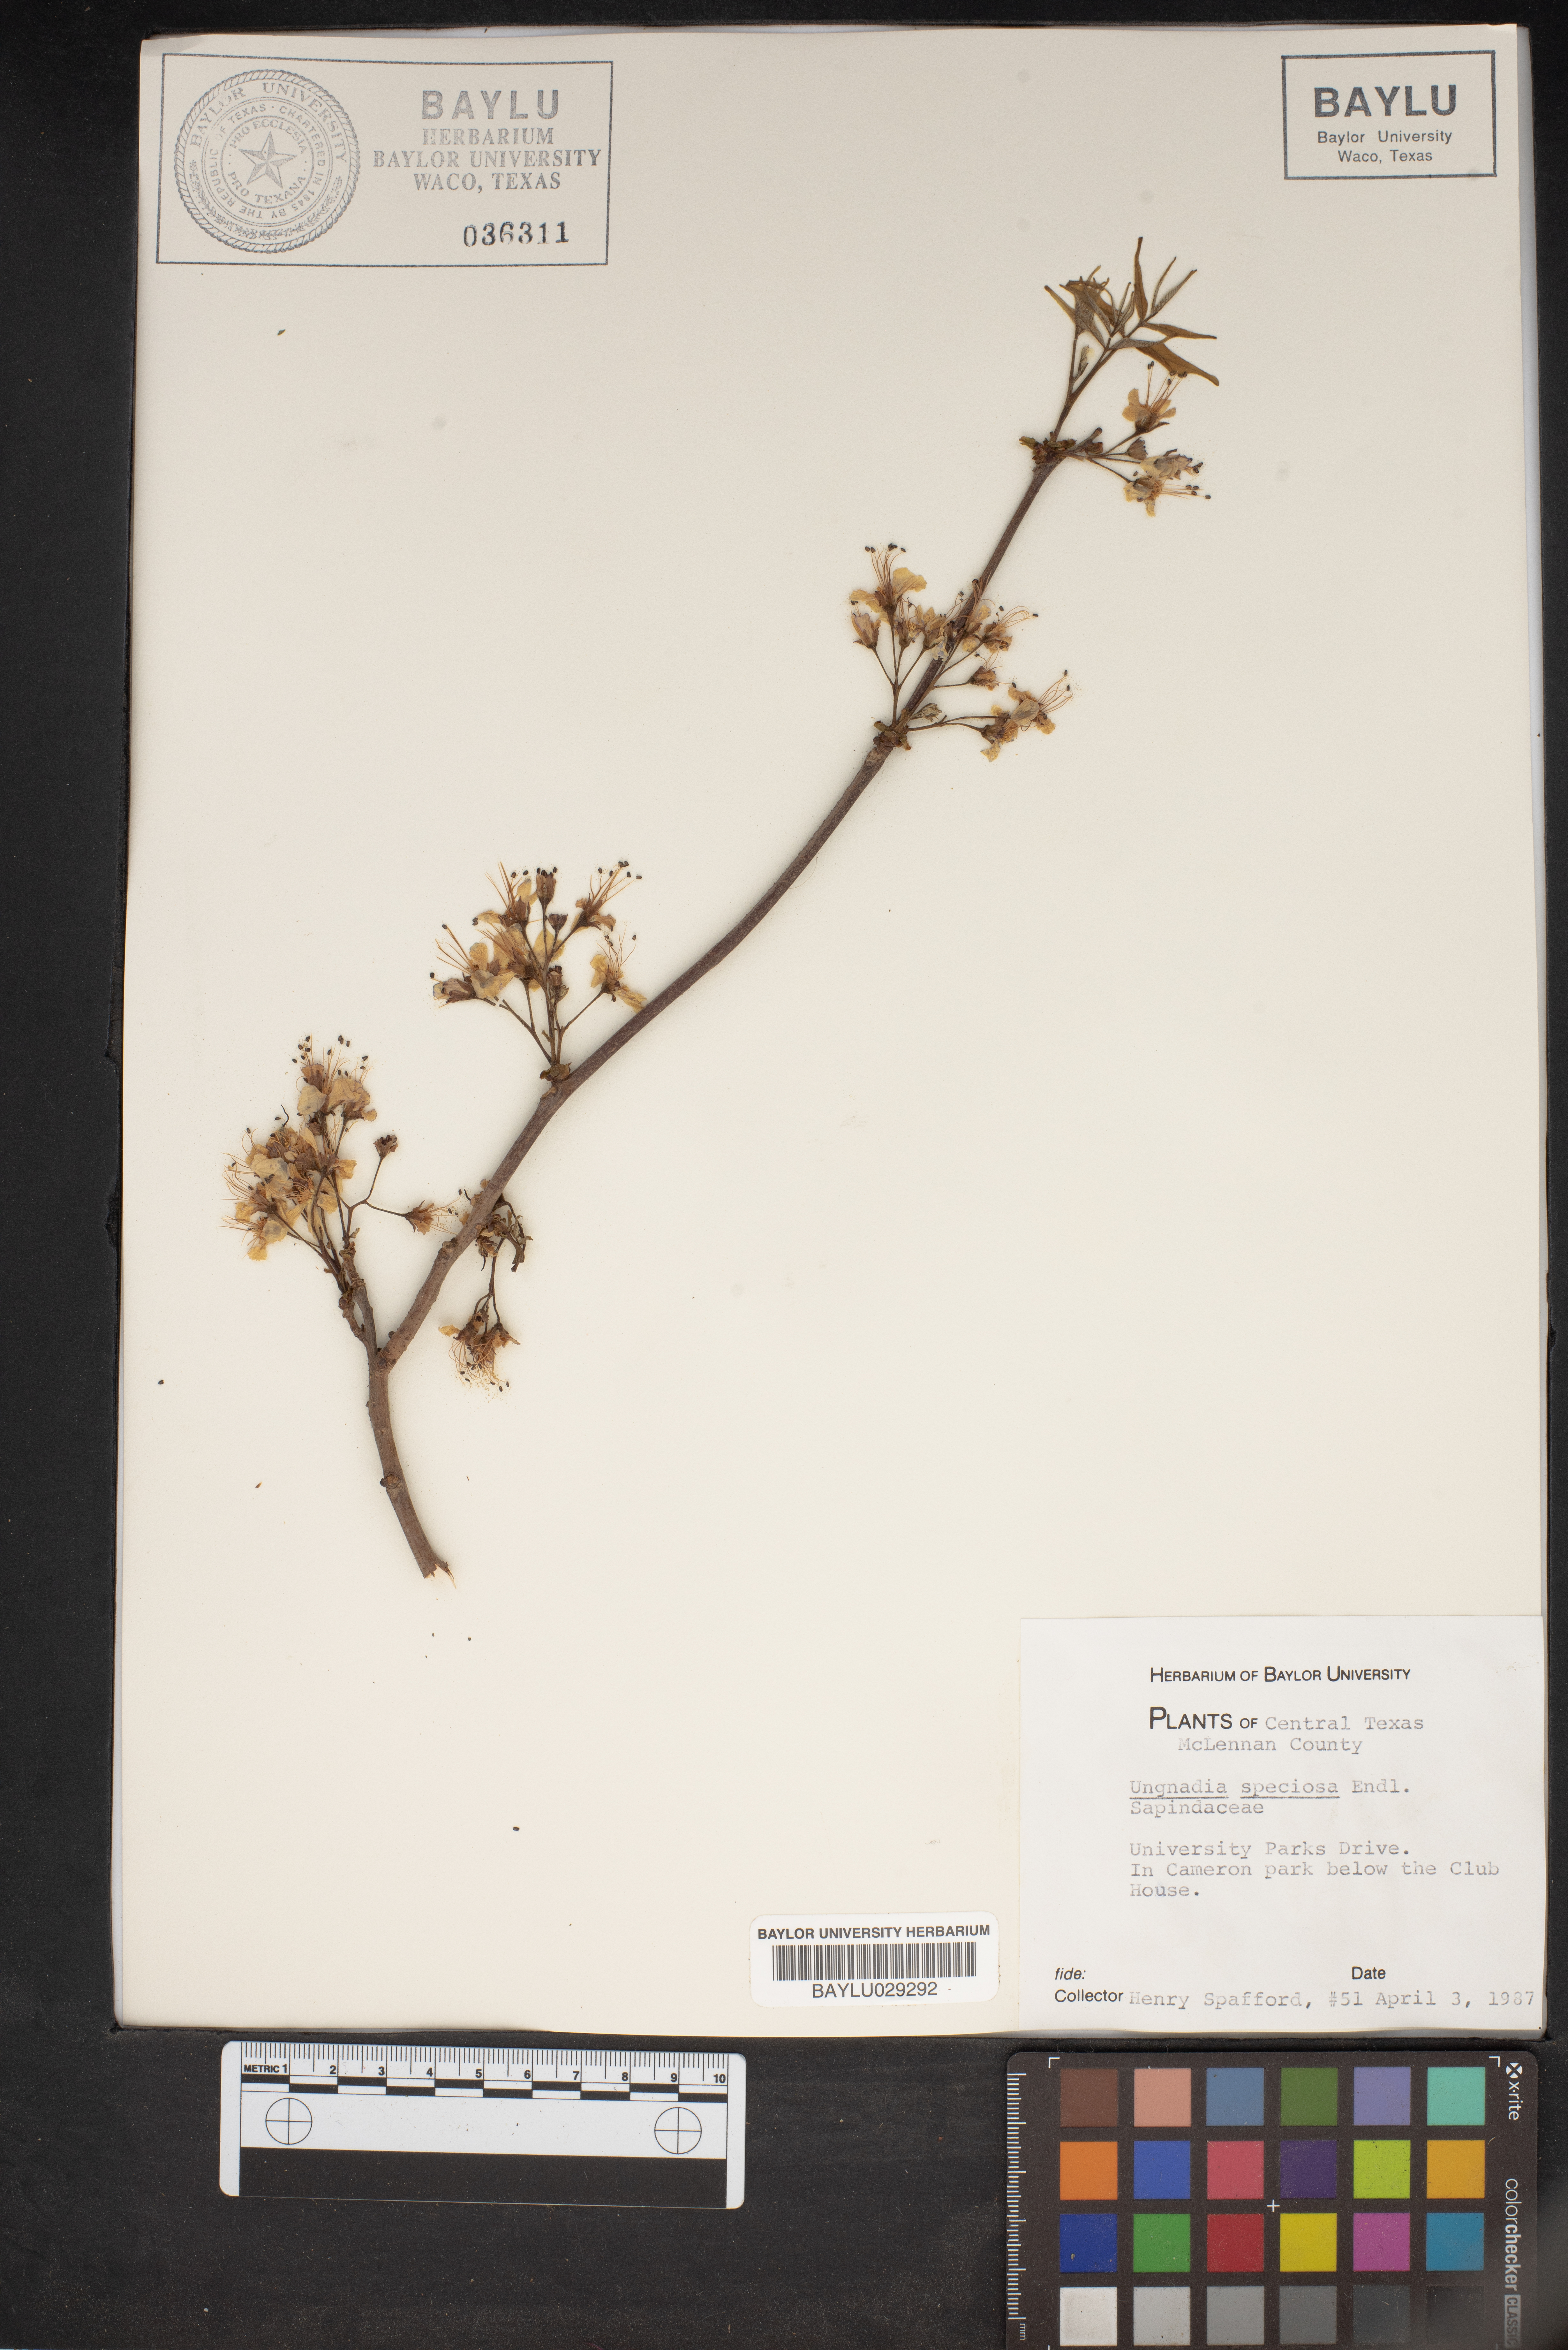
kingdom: Plantae
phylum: Tracheophyta
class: Magnoliopsida
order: Sapindales
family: Sapindaceae
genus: Ungnadia
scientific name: Ungnadia speciosa
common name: Texas-buckeye
